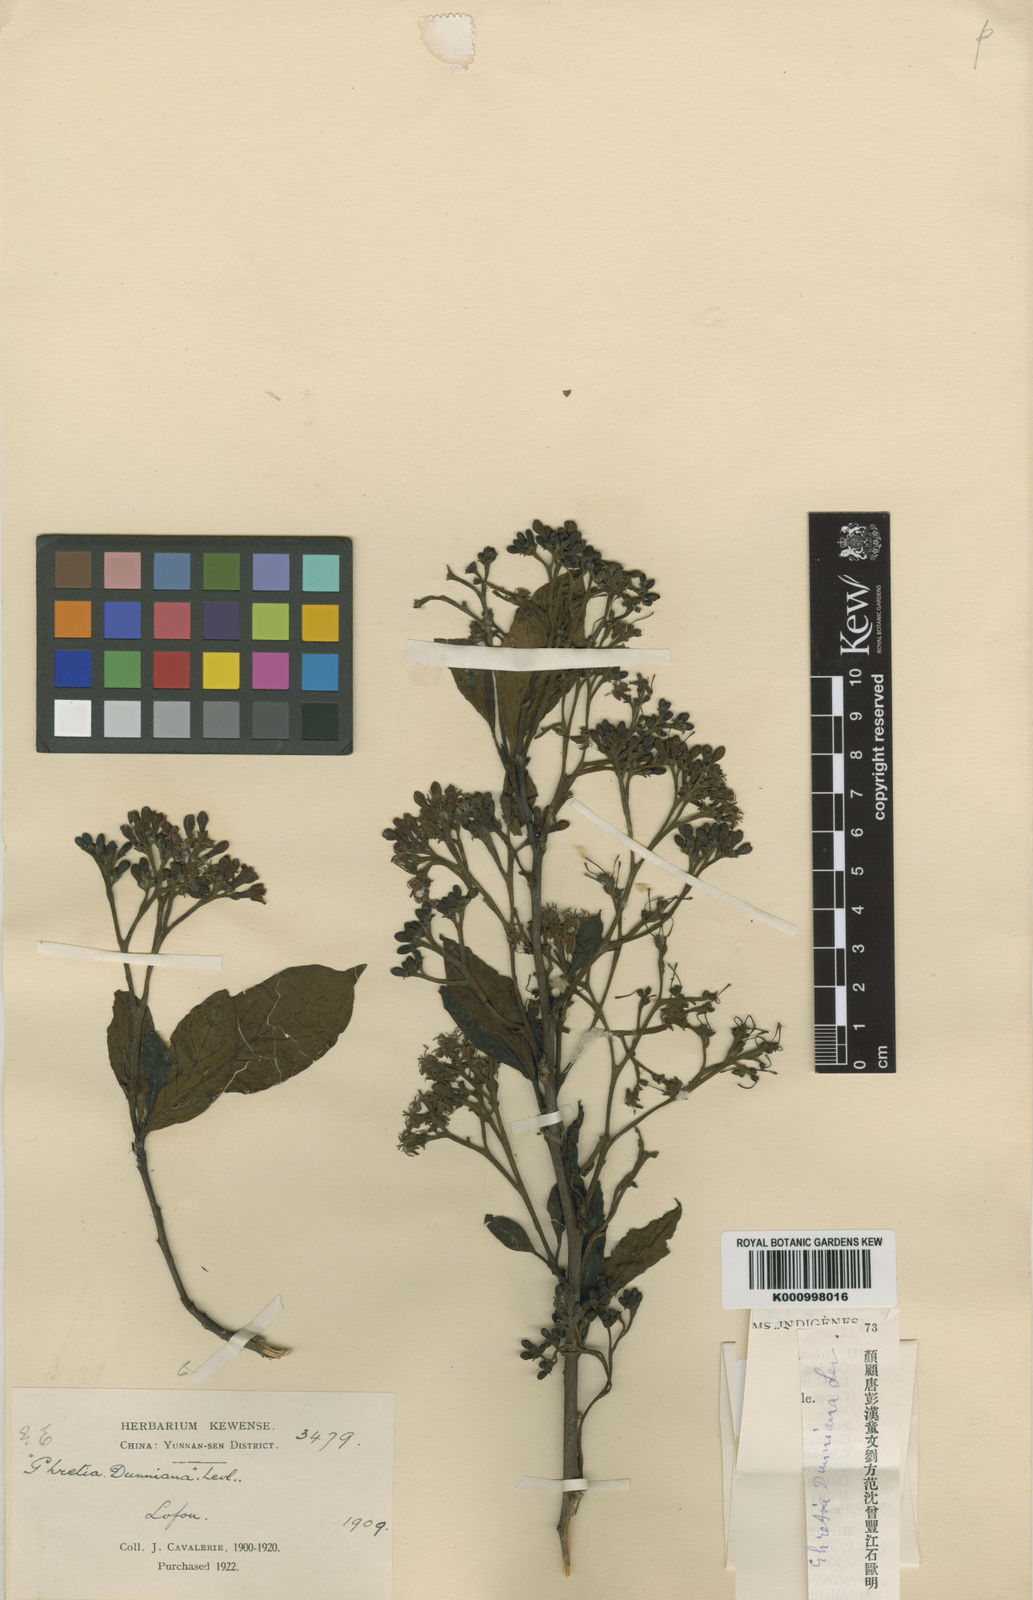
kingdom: Plantae
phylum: Tracheophyta
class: Magnoliopsida
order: Boraginales
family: Ehretiaceae
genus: Ehretia
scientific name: Ehretia
